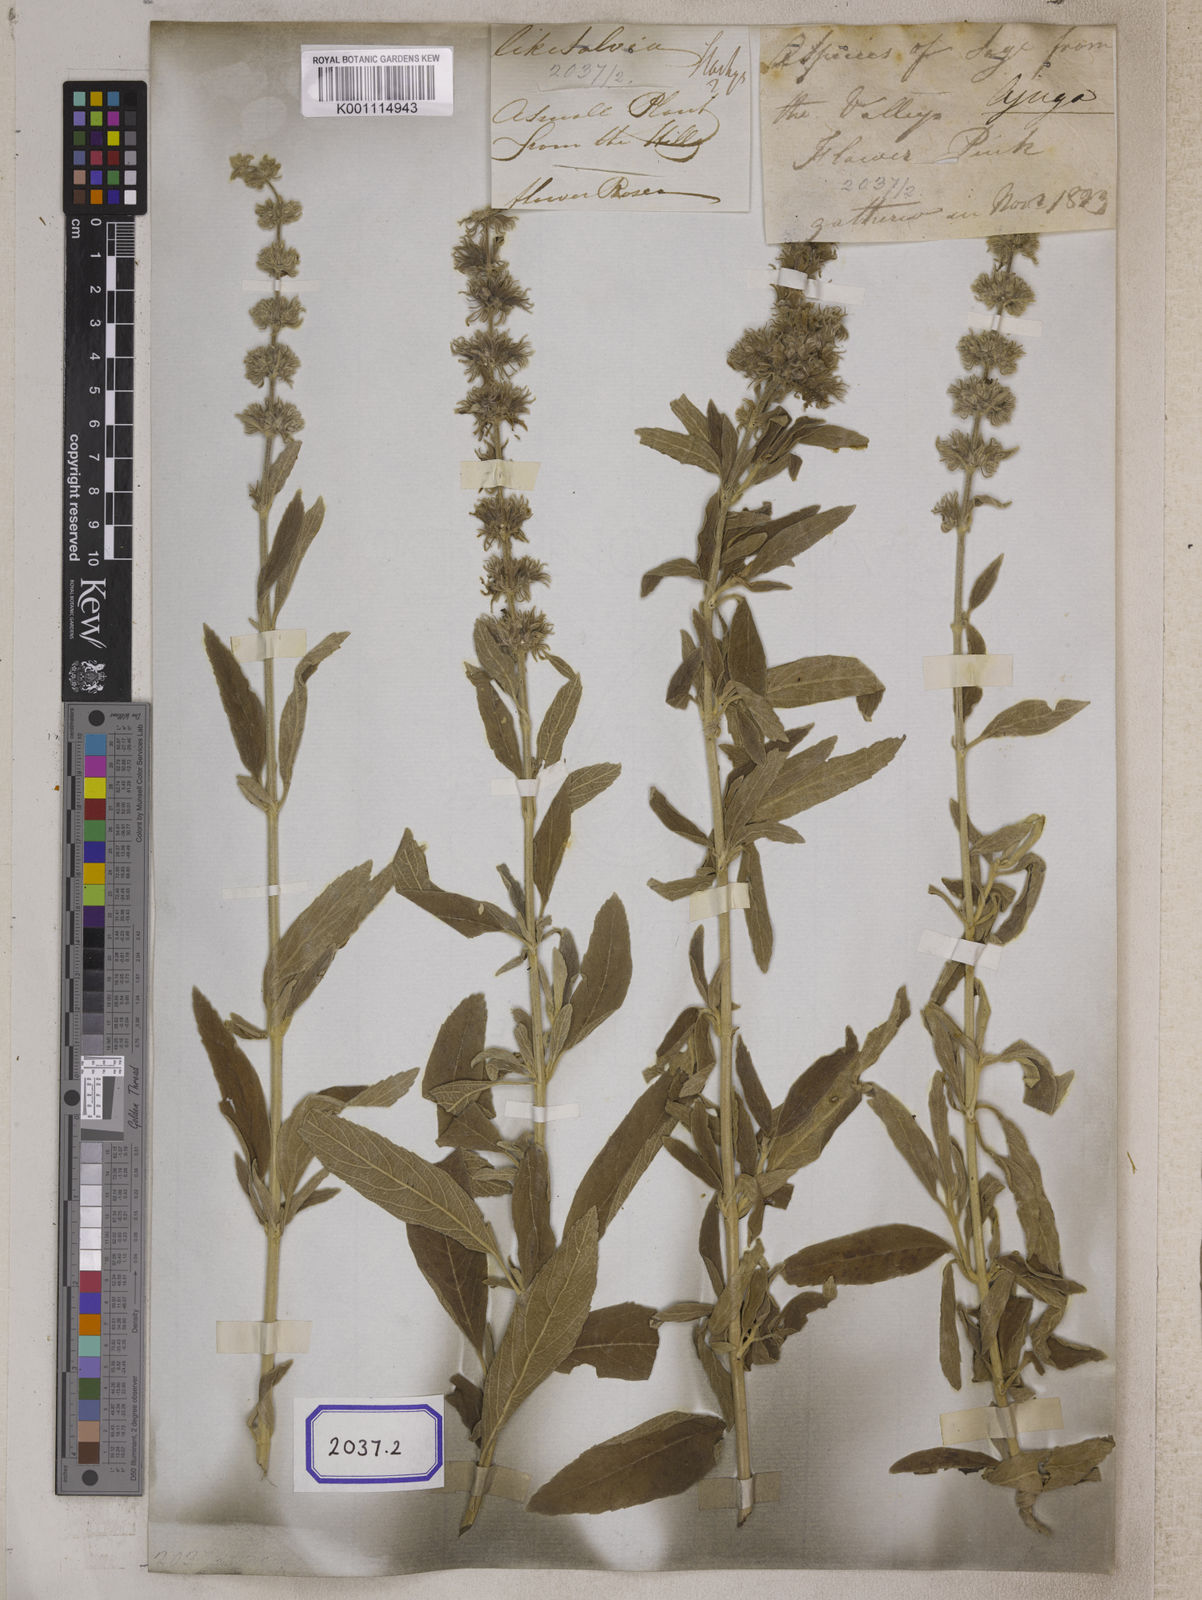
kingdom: Plantae
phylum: Tracheophyta
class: Magnoliopsida
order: Lamiales
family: Lamiaceae
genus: Anisomeles
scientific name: Anisomeles malabarica
